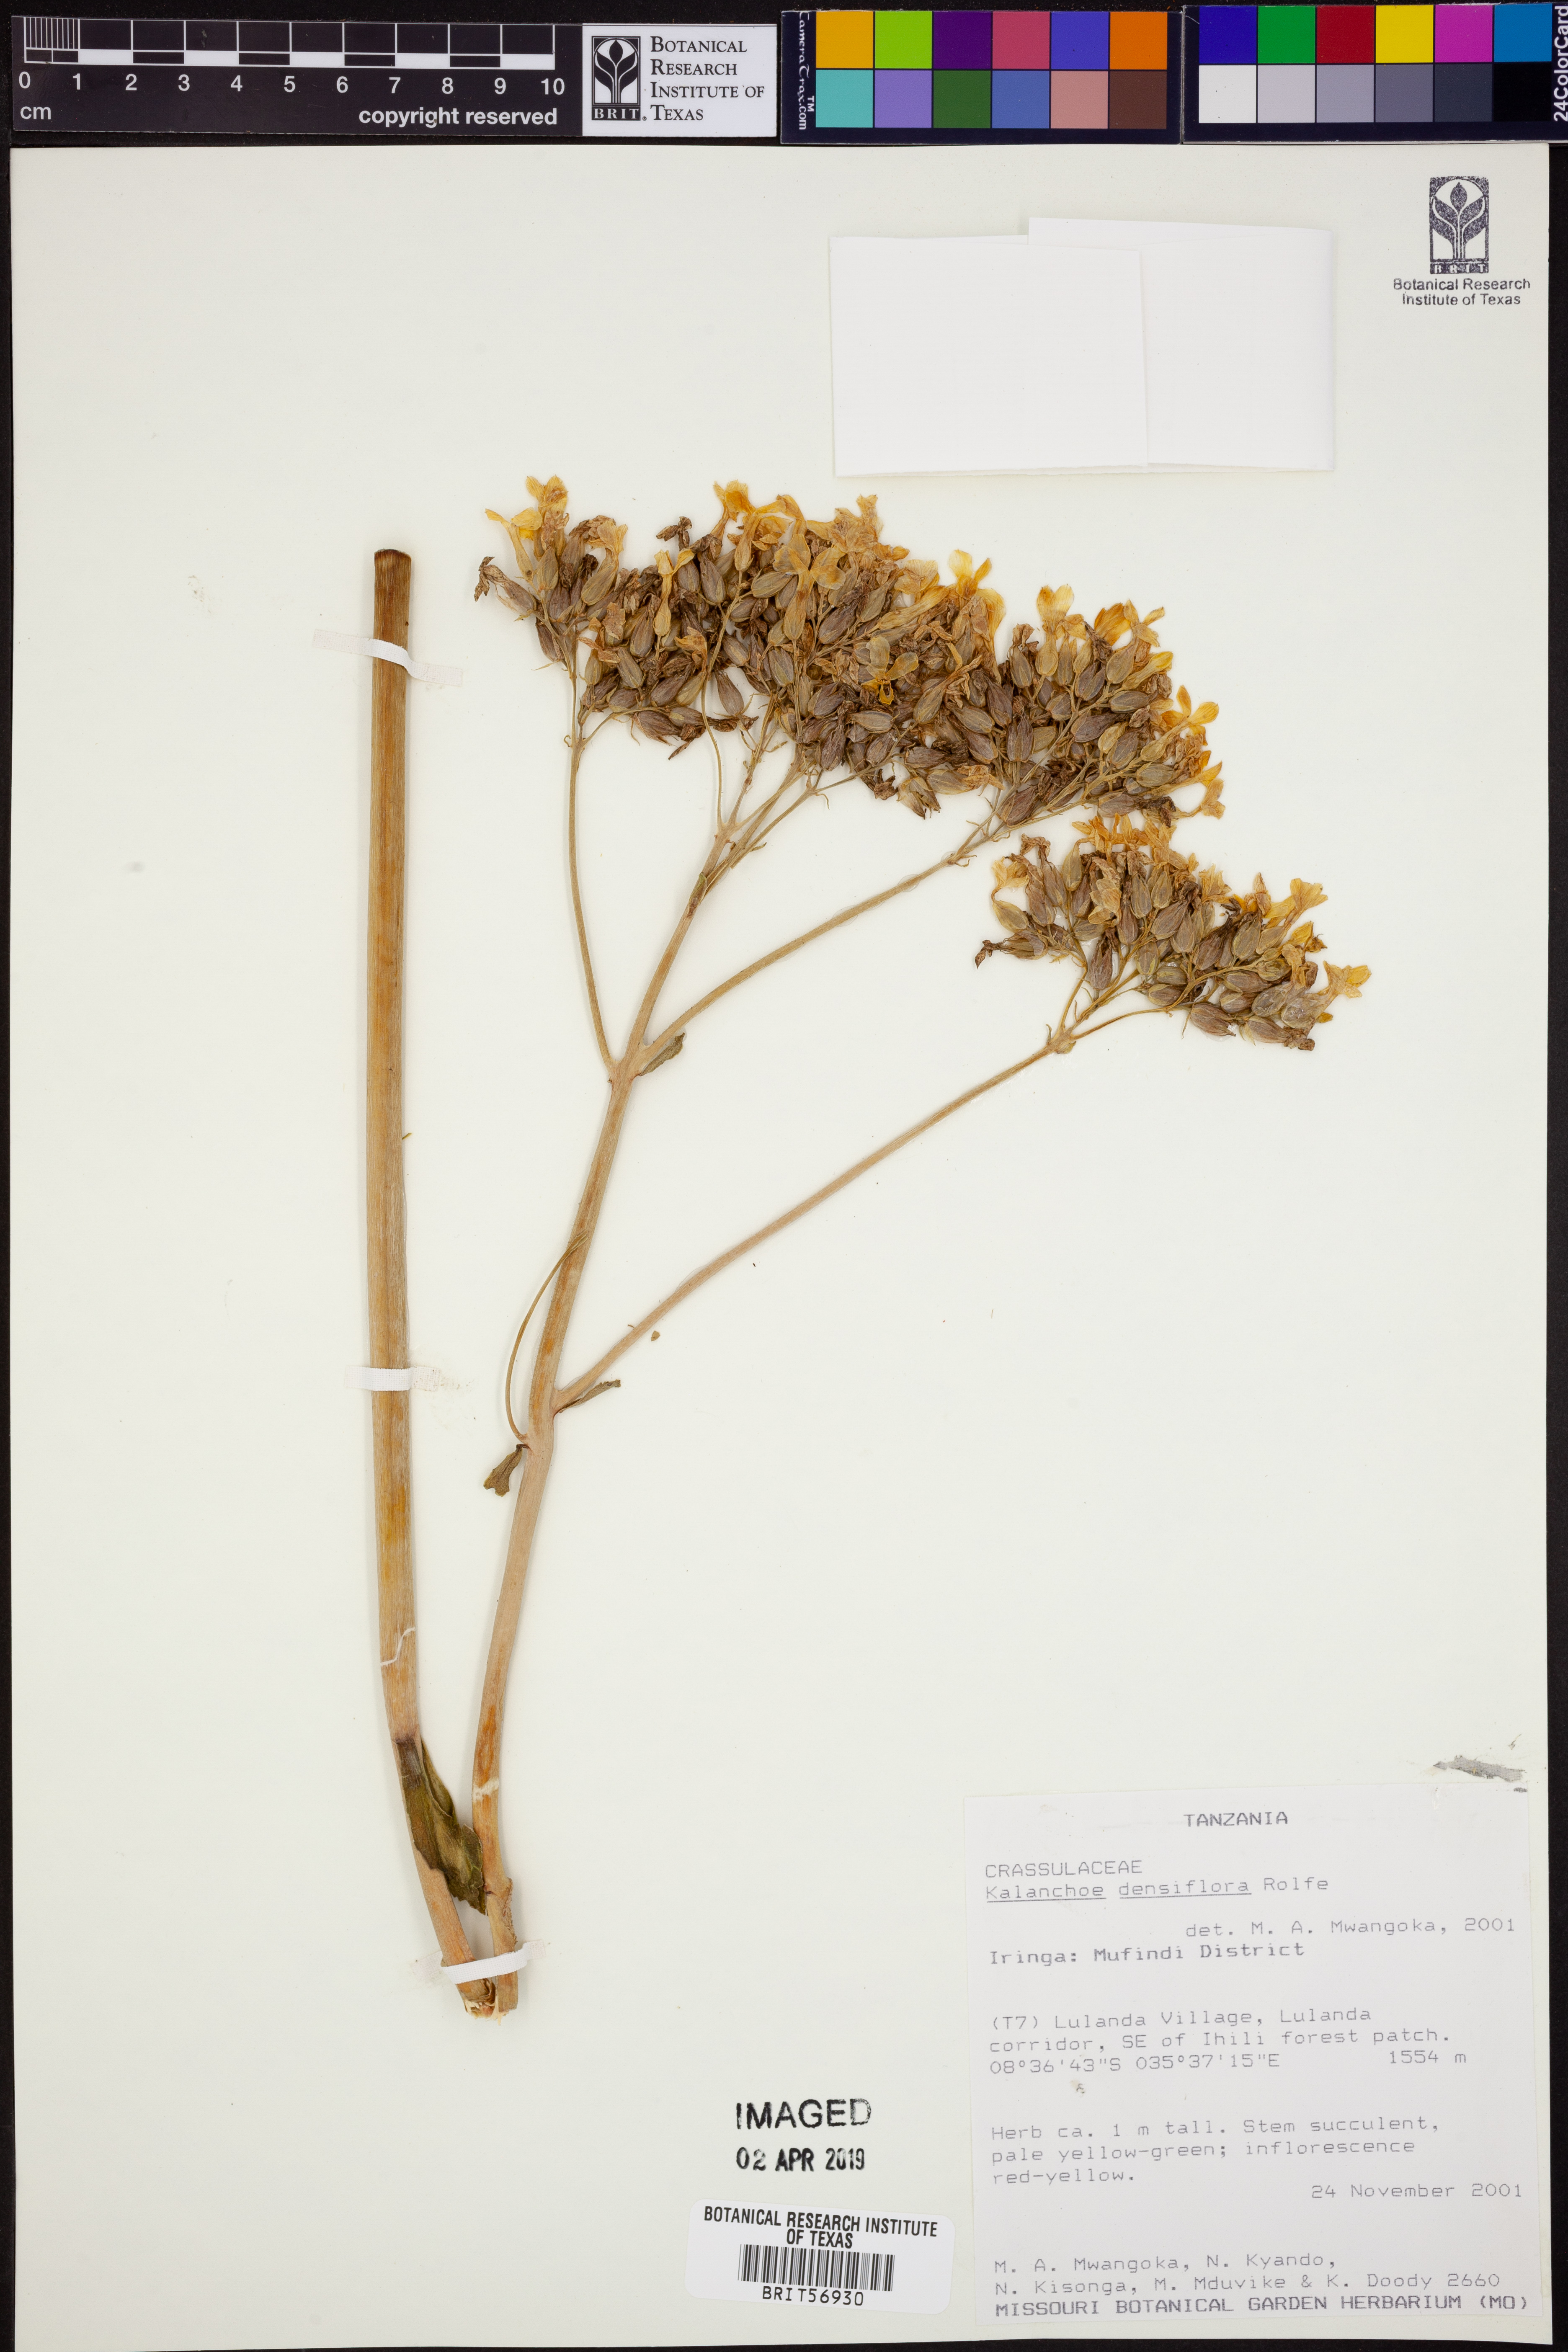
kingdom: Plantae
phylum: Tracheophyta
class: Magnoliopsida
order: Saxifragales
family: Crassulaceae
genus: Kalanchoe
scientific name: Kalanchoe densiflora
